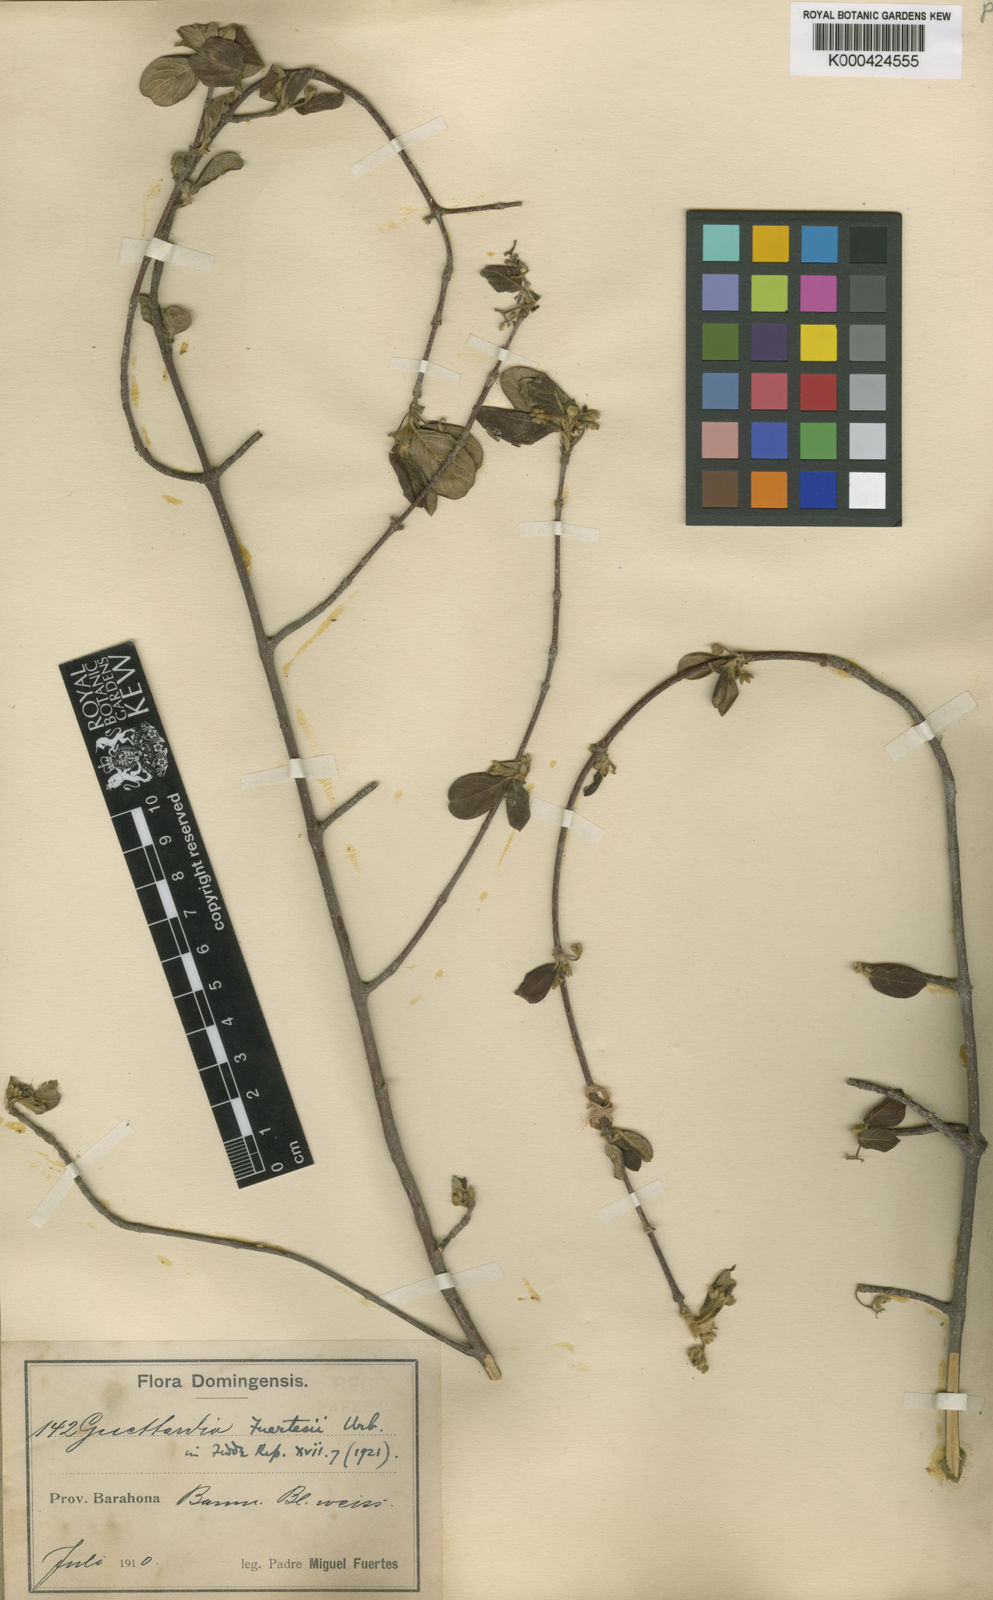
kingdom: Plantae
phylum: Tracheophyta
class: Magnoliopsida
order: Gentianales
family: Rubiaceae
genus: Guettarda
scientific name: Guettarda elliptica
